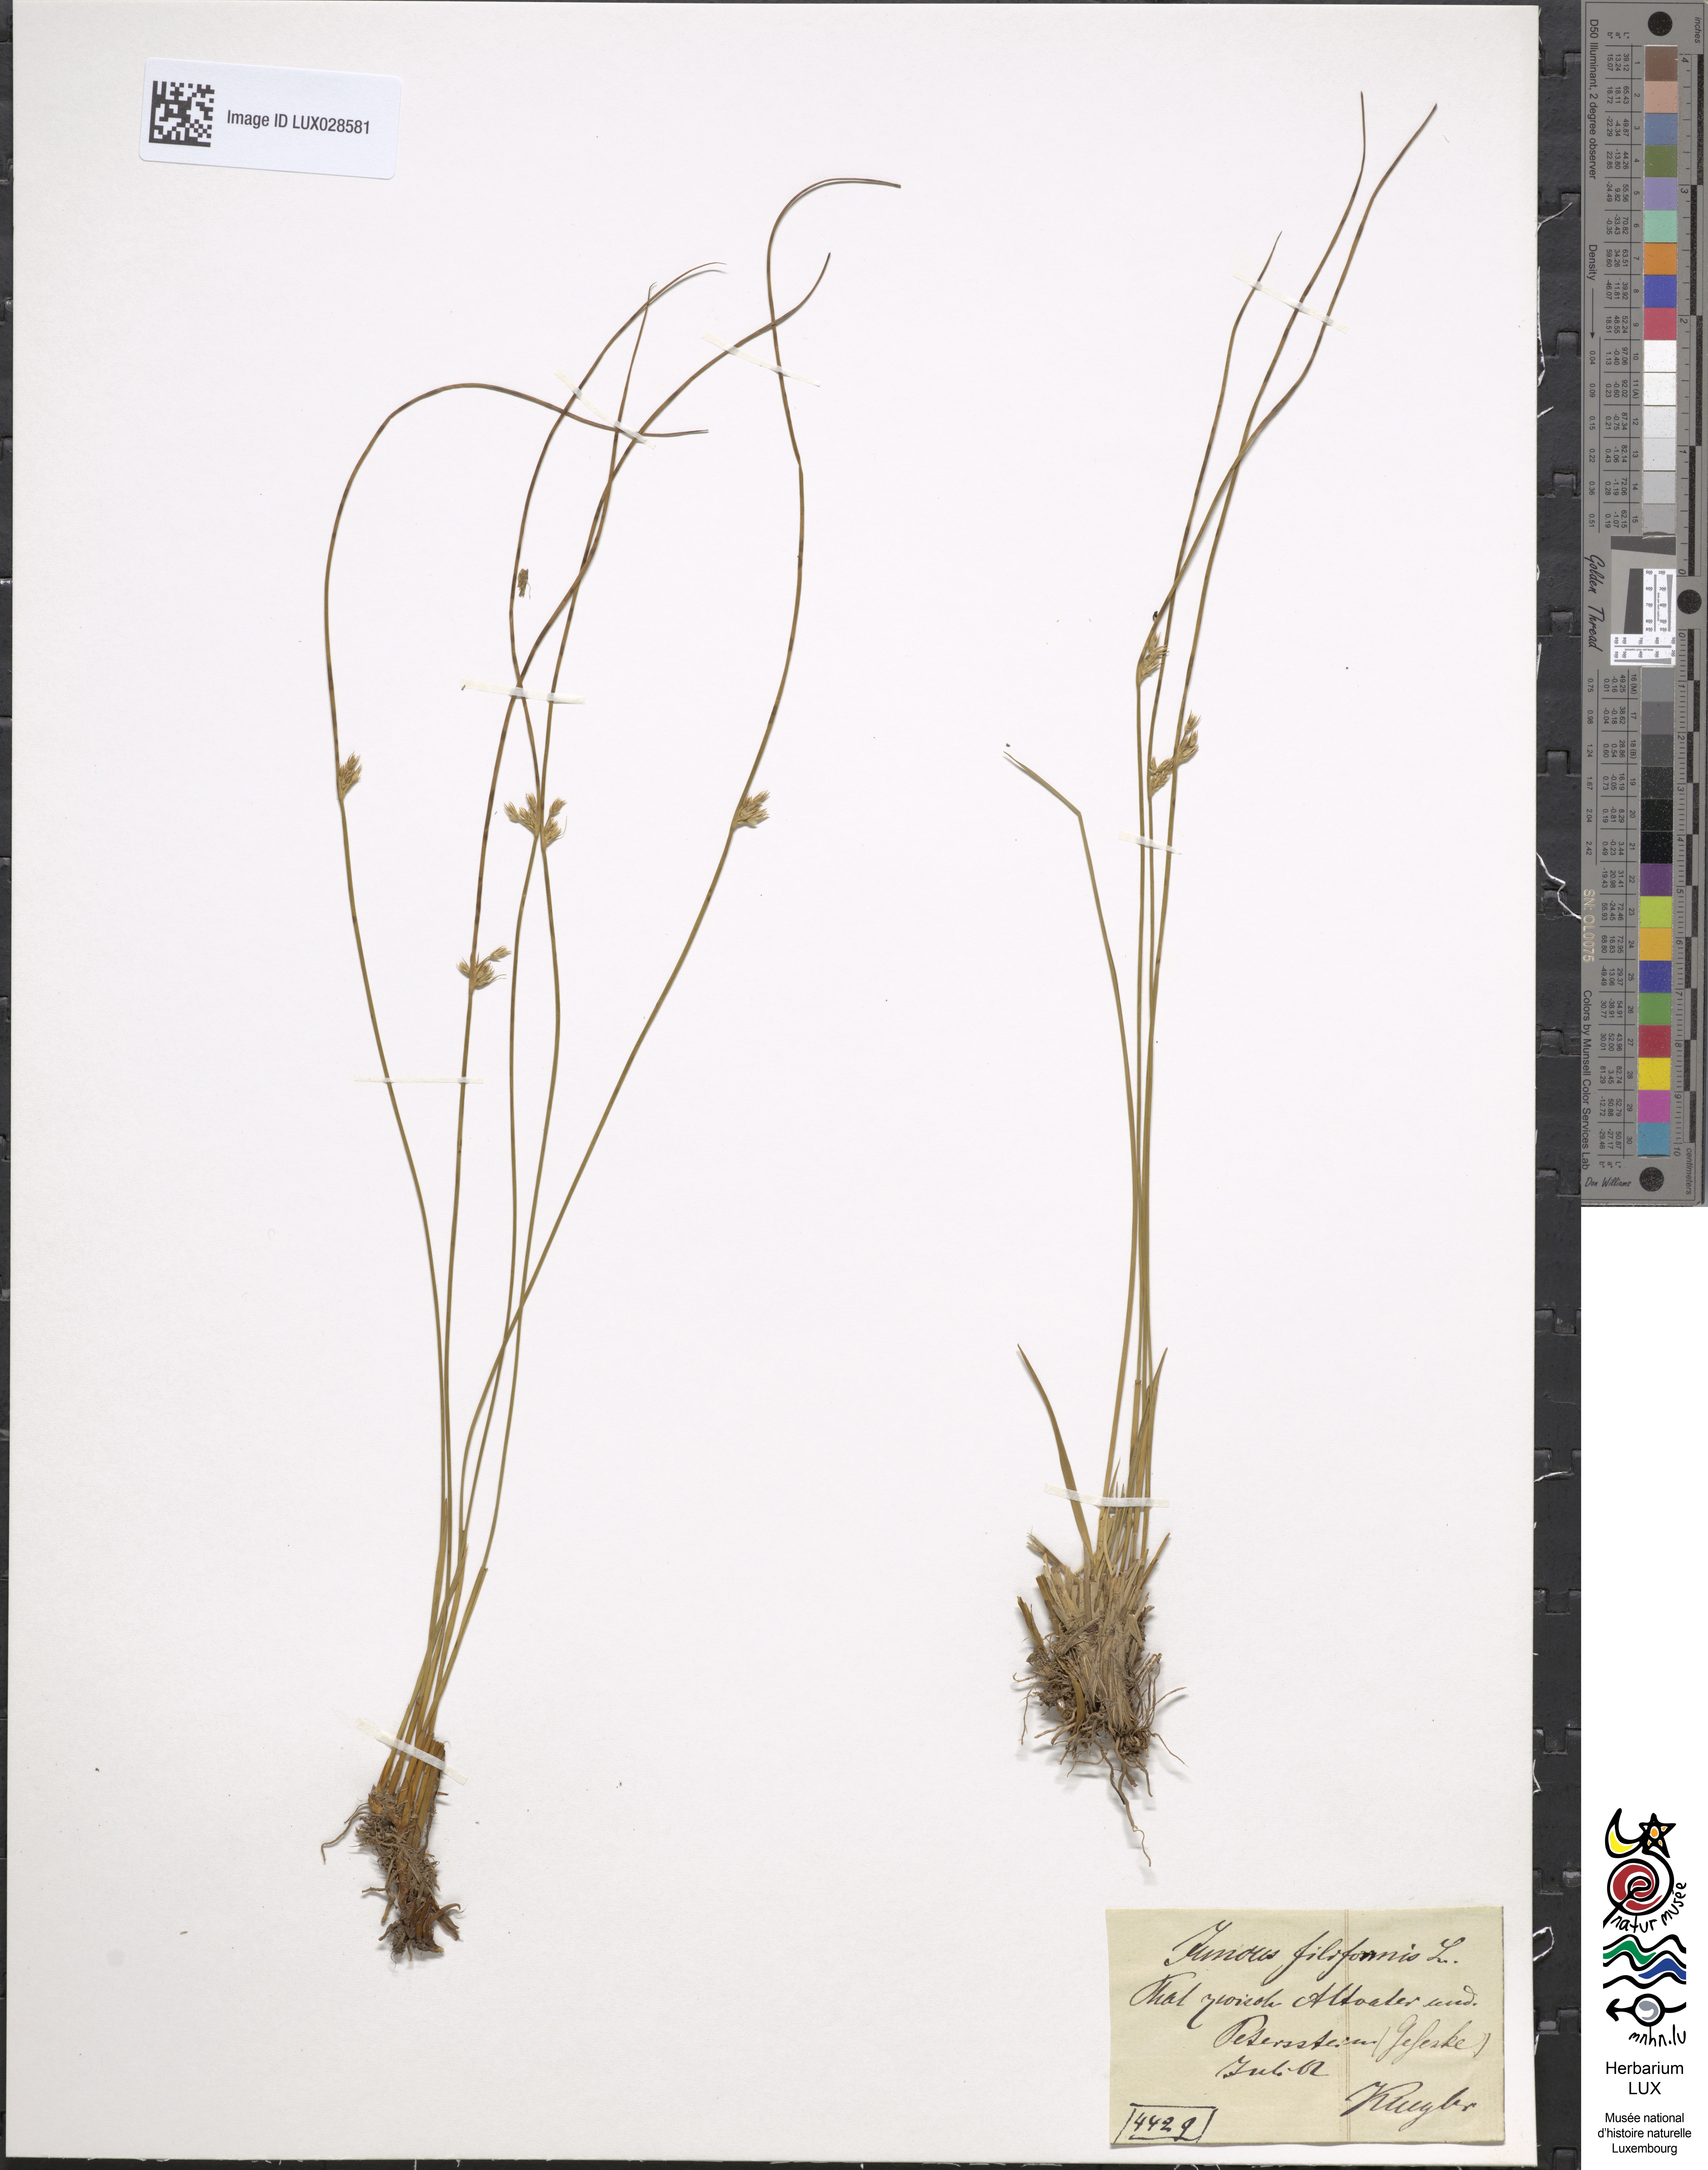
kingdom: Plantae
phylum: Tracheophyta
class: Liliopsida
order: Poales
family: Juncaceae
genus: Juncus
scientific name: Juncus filiformis
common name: Thread rush
